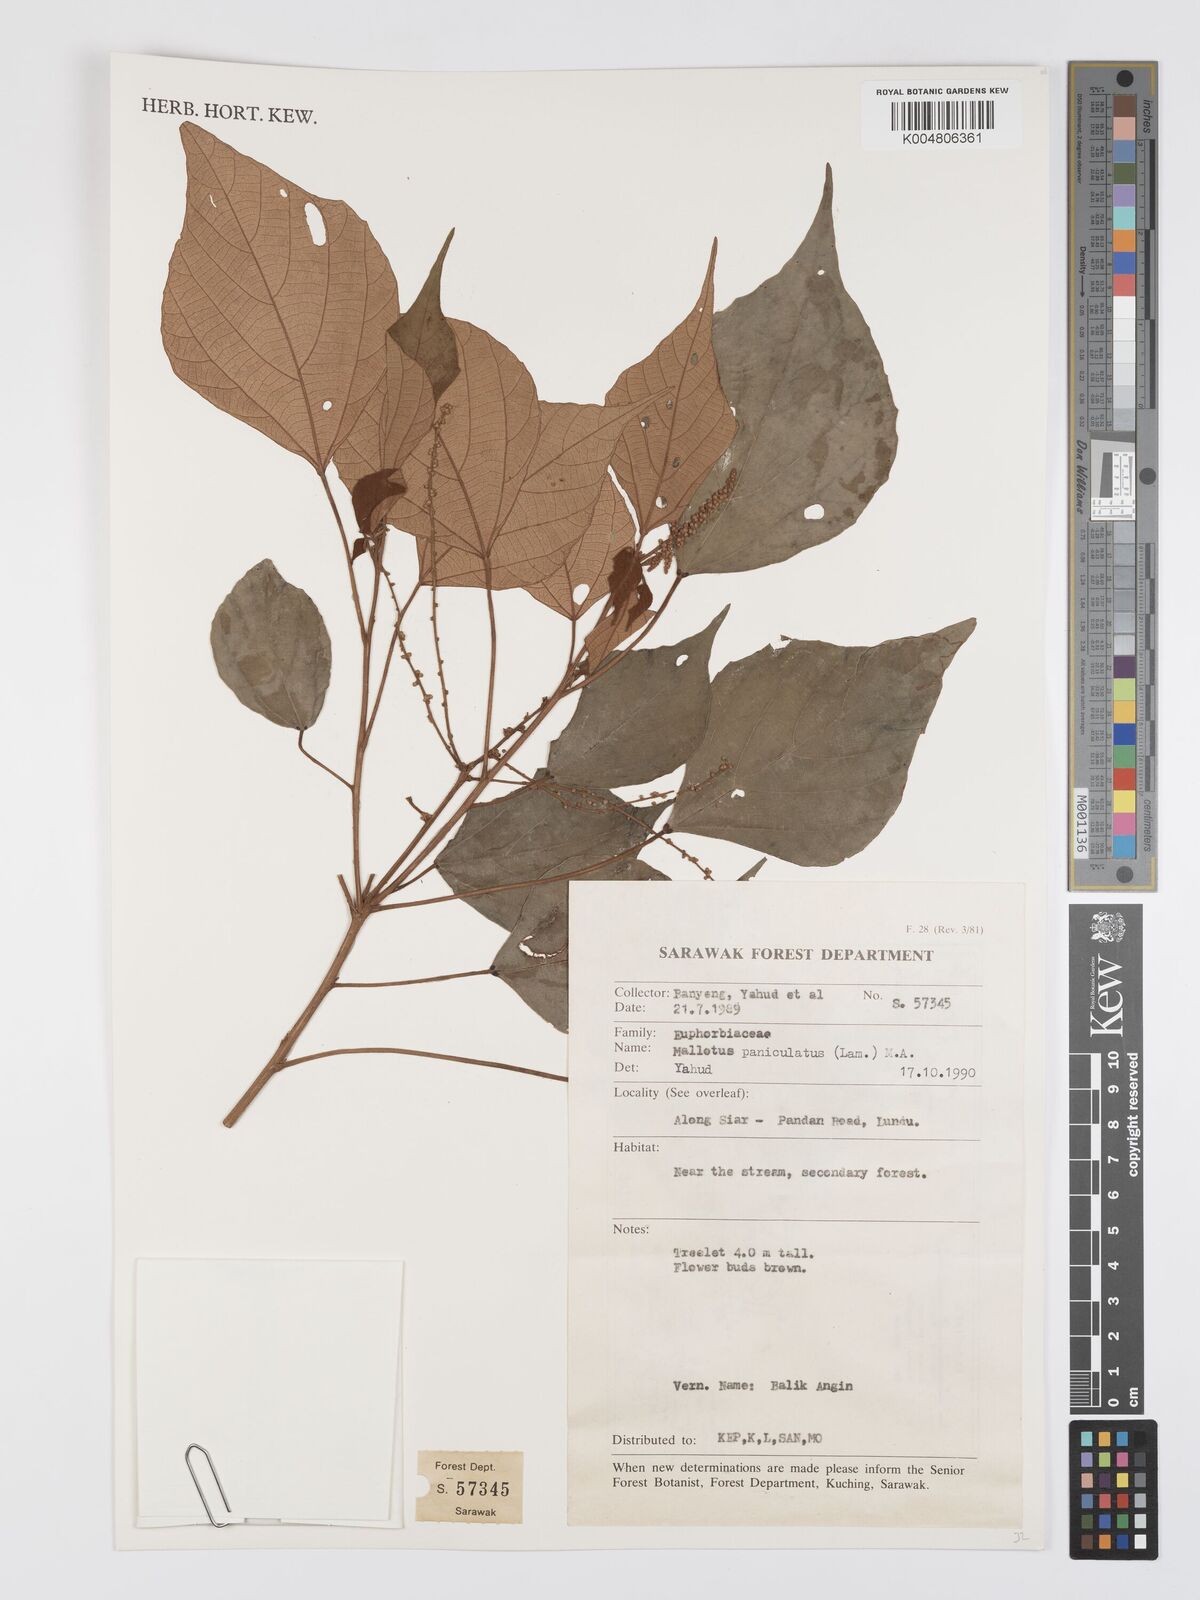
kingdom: Plantae
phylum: Tracheophyta
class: Magnoliopsida
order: Malpighiales
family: Euphorbiaceae
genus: Mallotus
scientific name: Mallotus paniculatus
